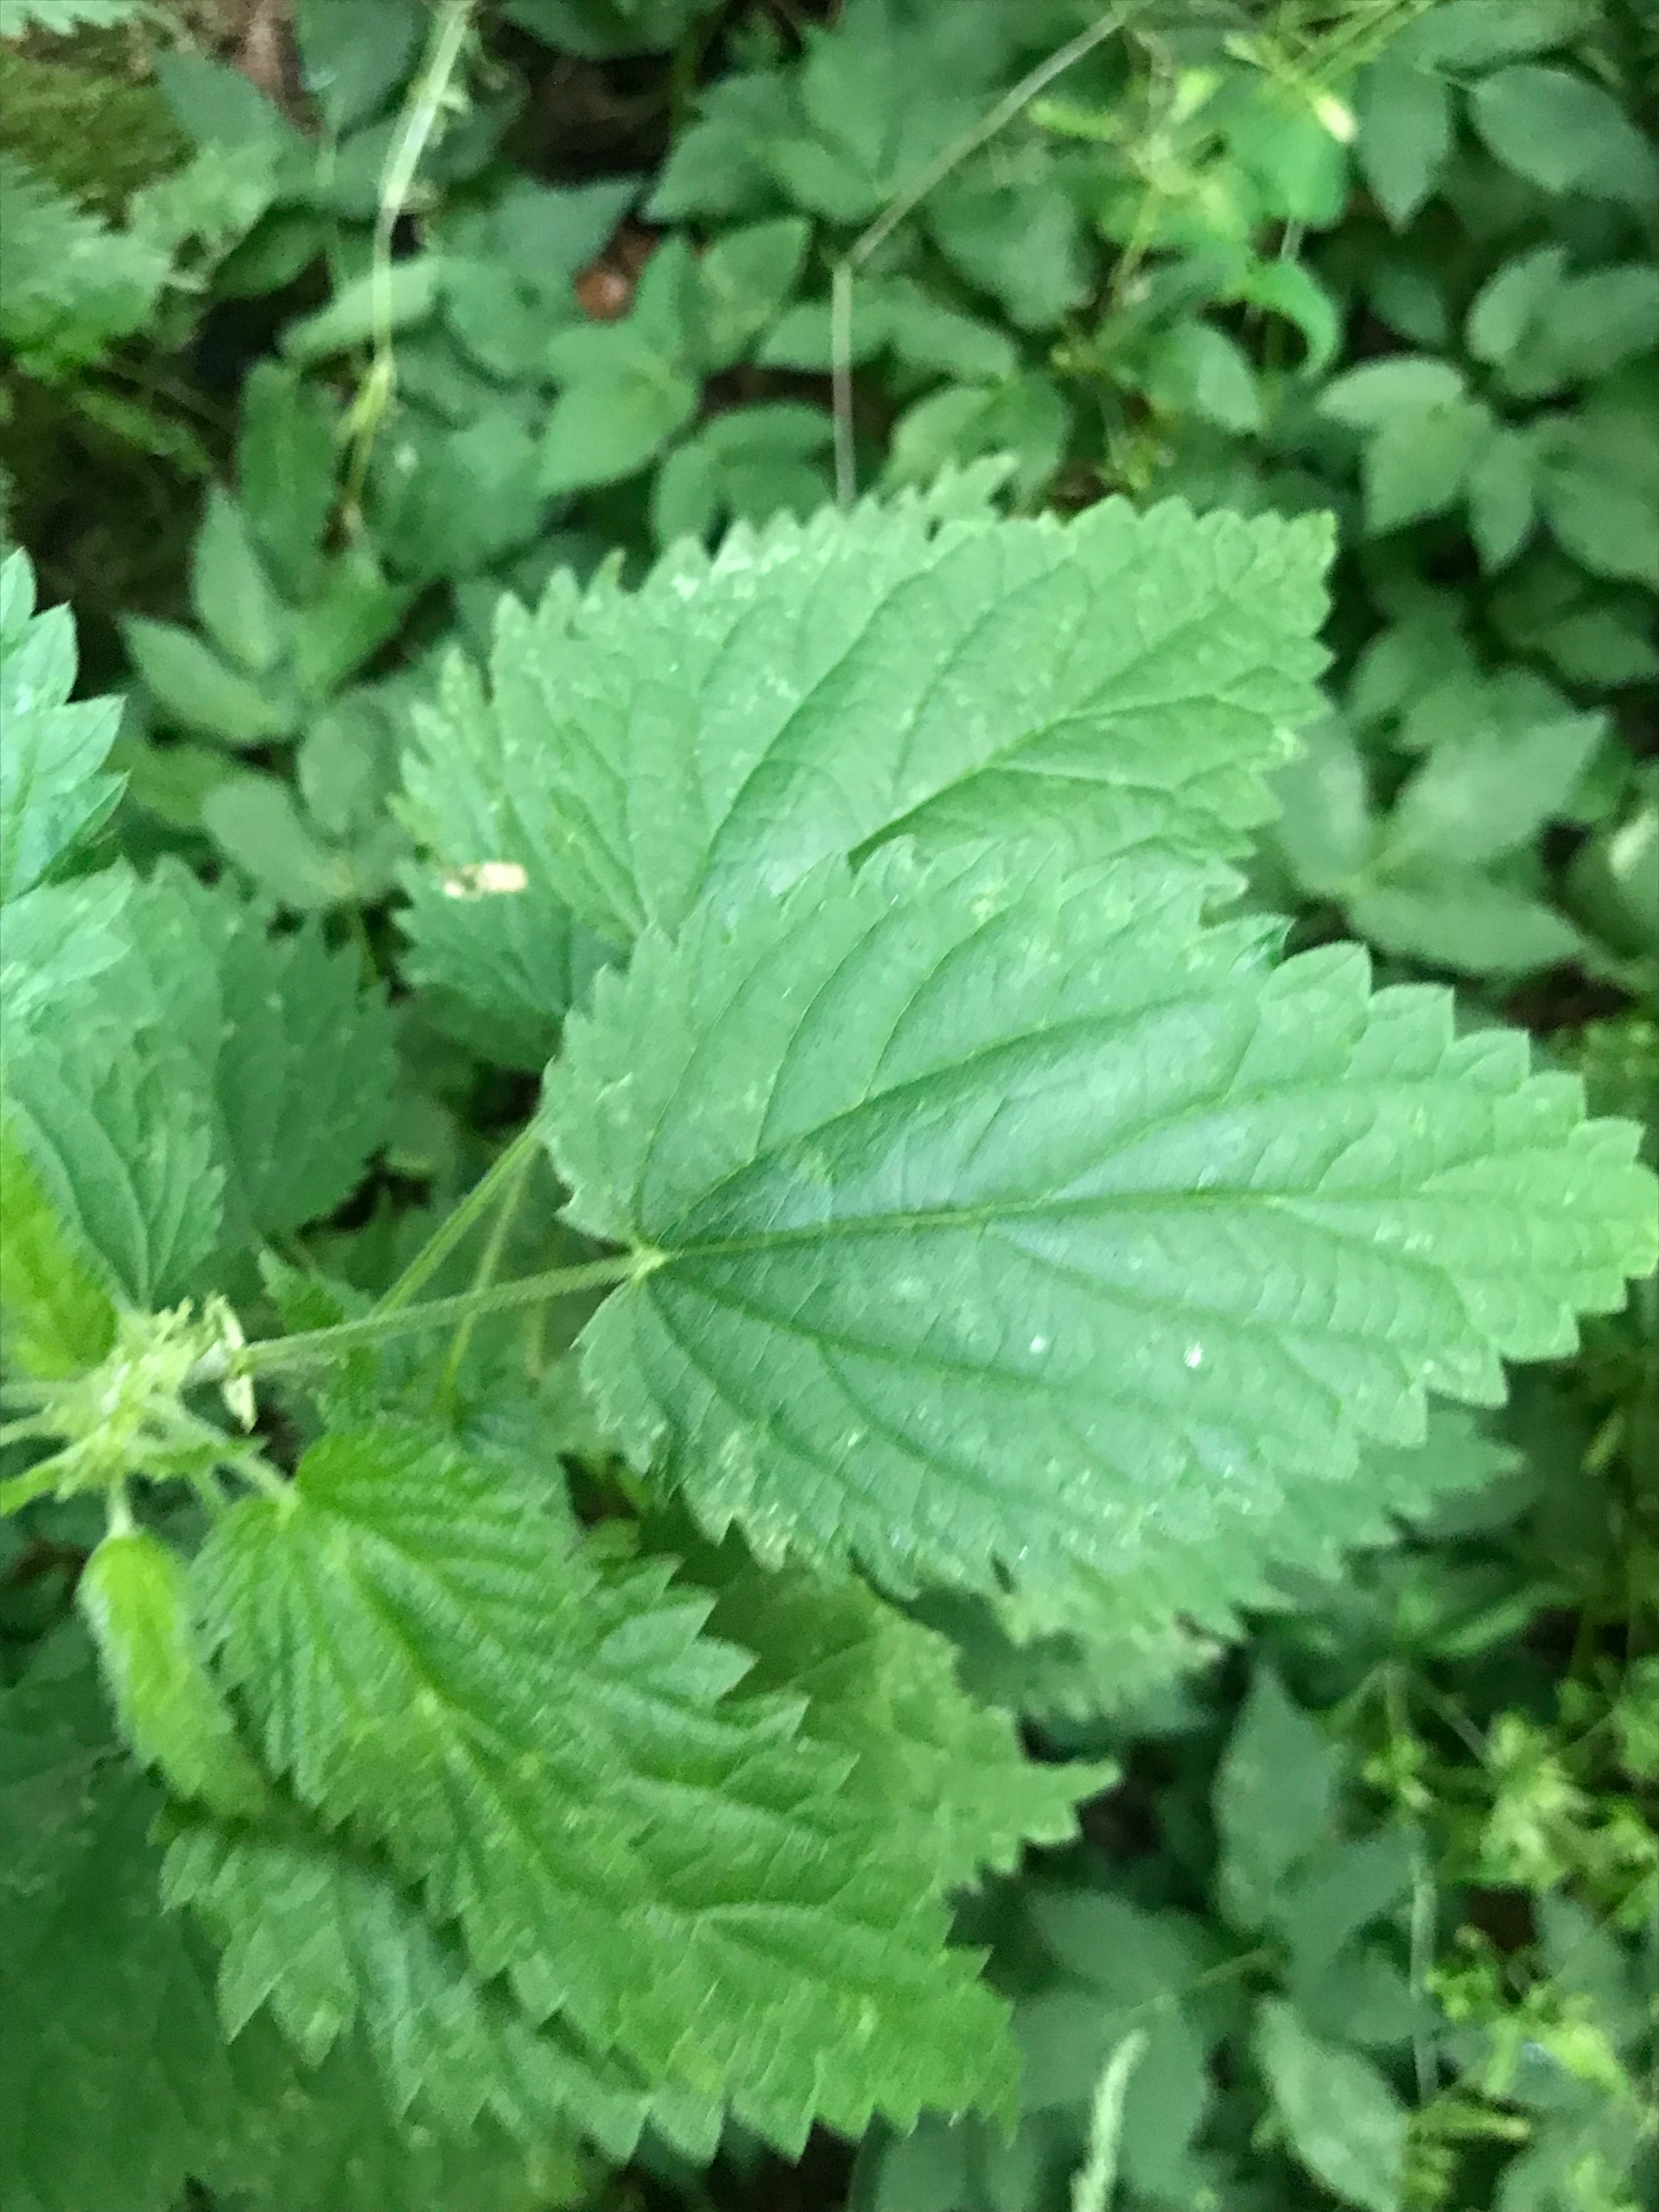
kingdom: Plantae
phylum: Tracheophyta
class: Magnoliopsida
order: Rosales
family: Urticaceae
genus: Urtica
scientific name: Urtica dioica
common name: Stor nælde
